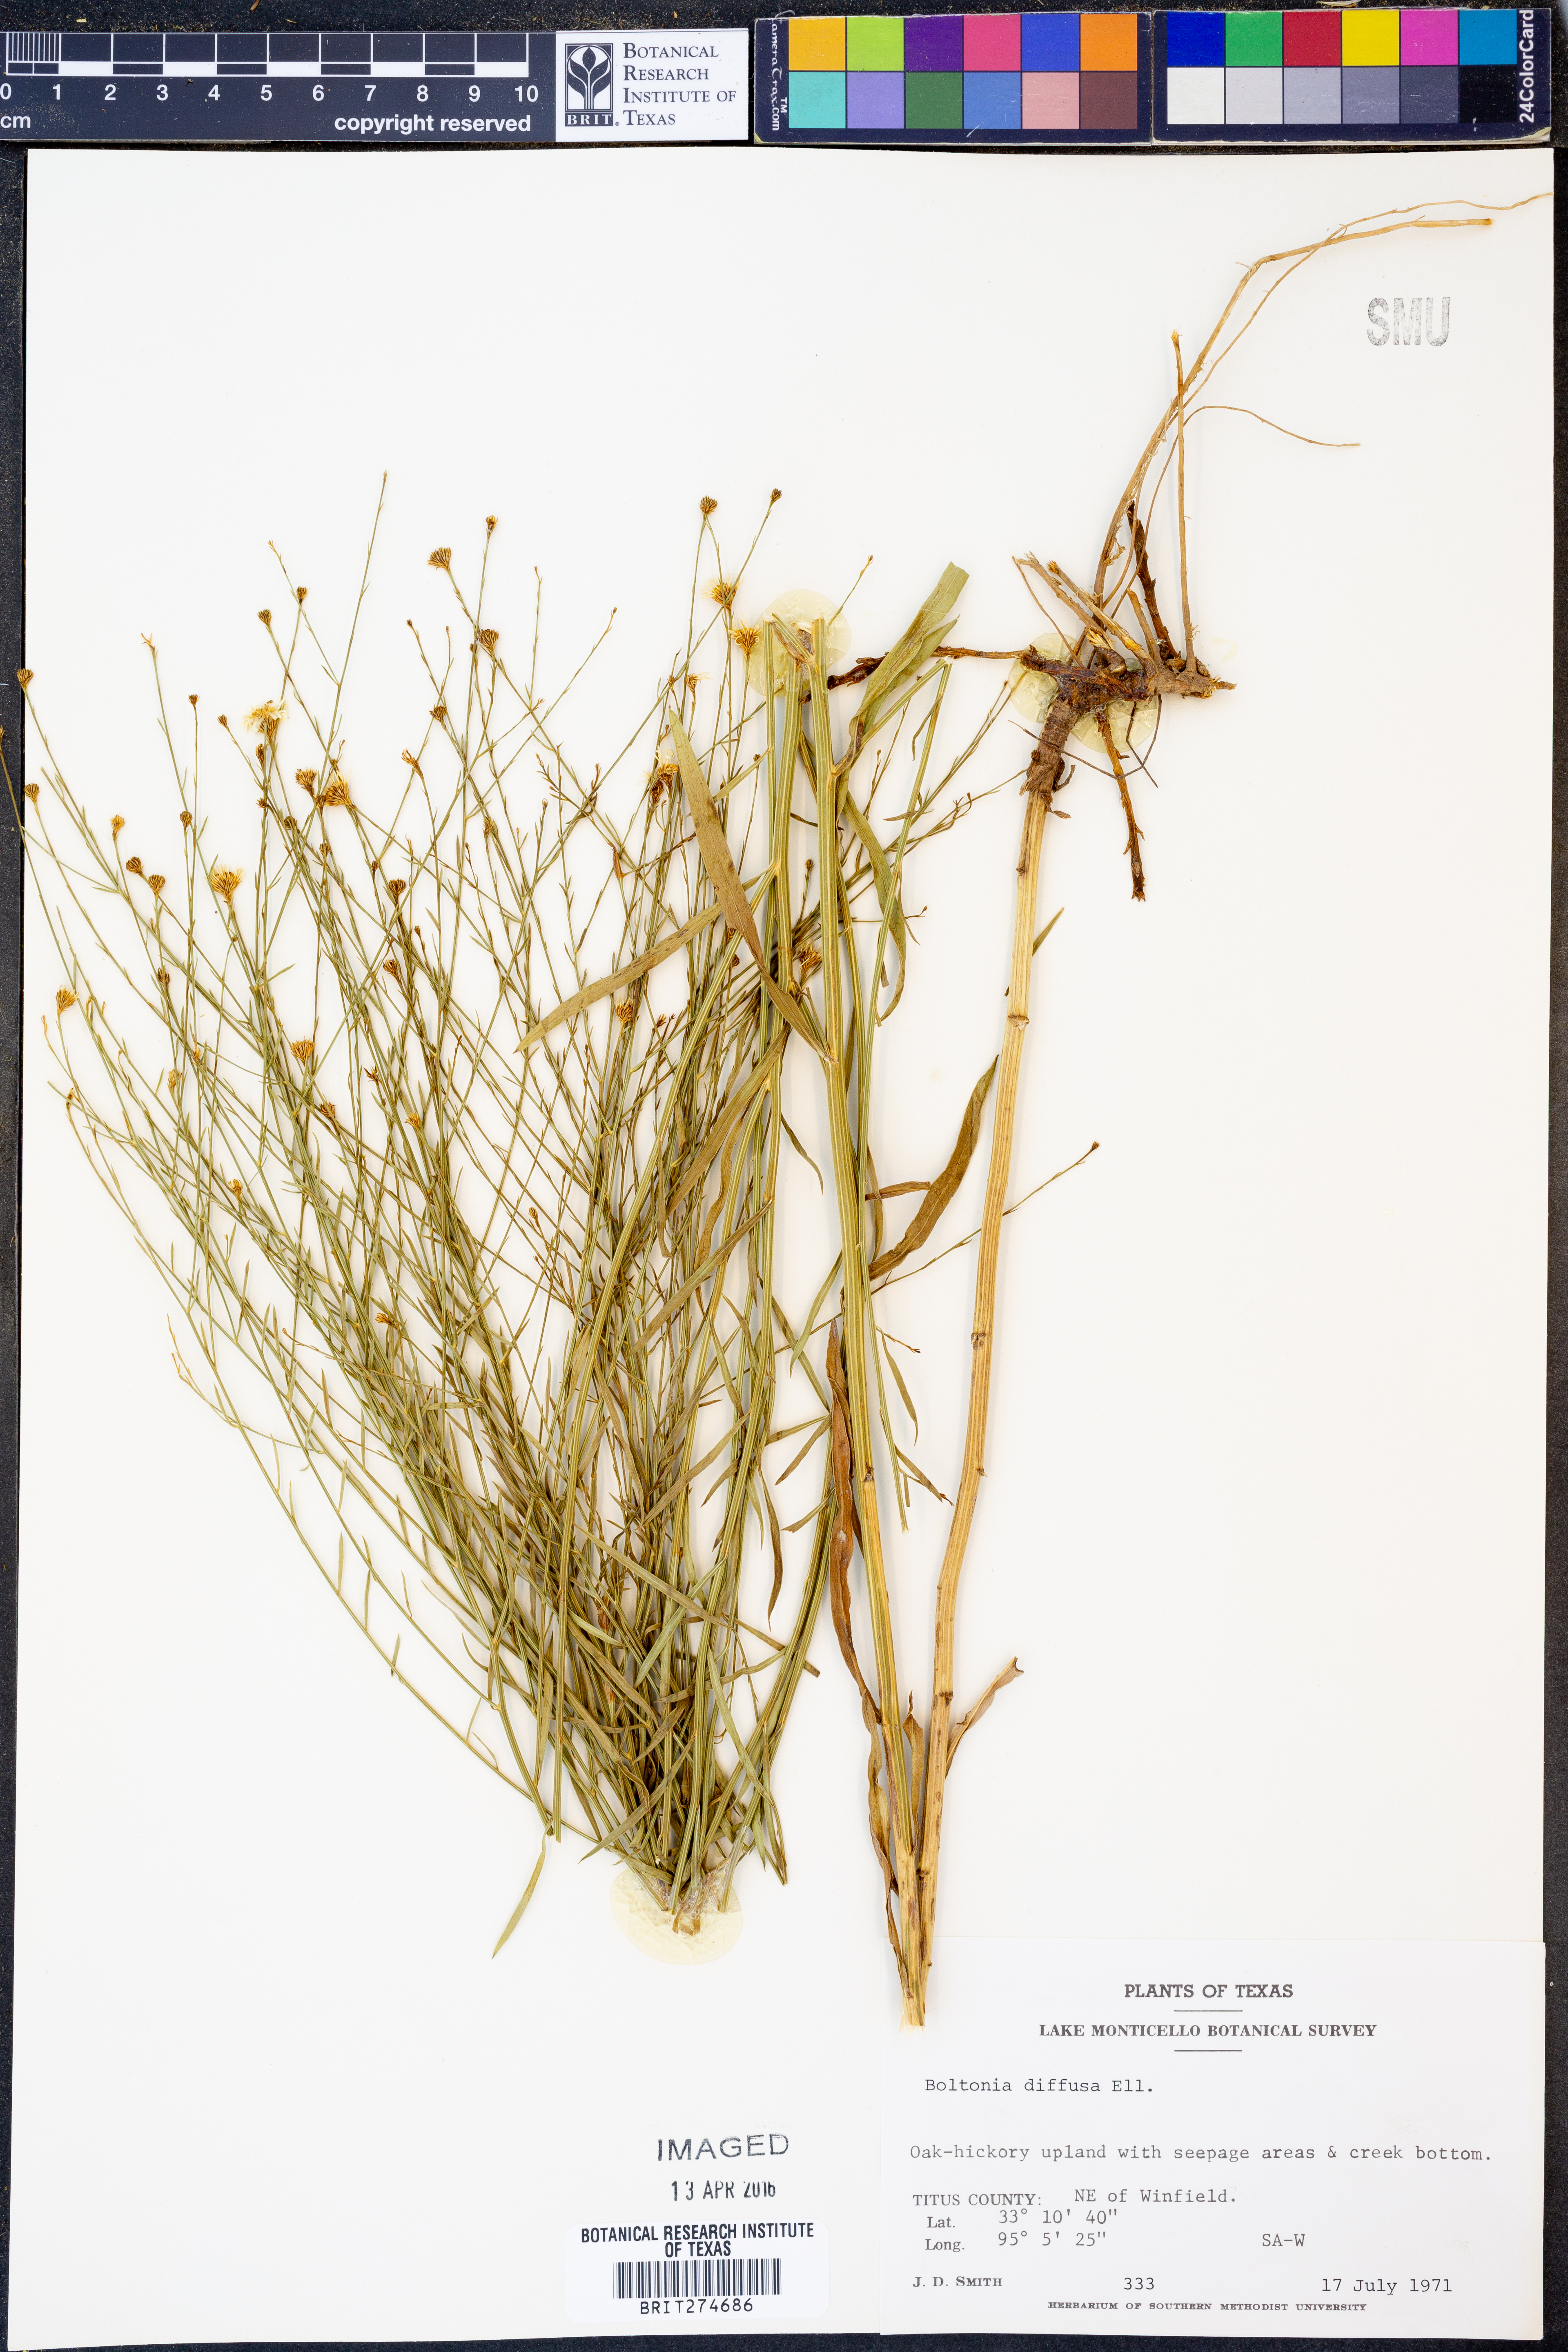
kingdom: Plantae
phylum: Tracheophyta
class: Magnoliopsida
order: Asterales
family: Asteraceae
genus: Boltonia
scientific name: Boltonia diffusa
